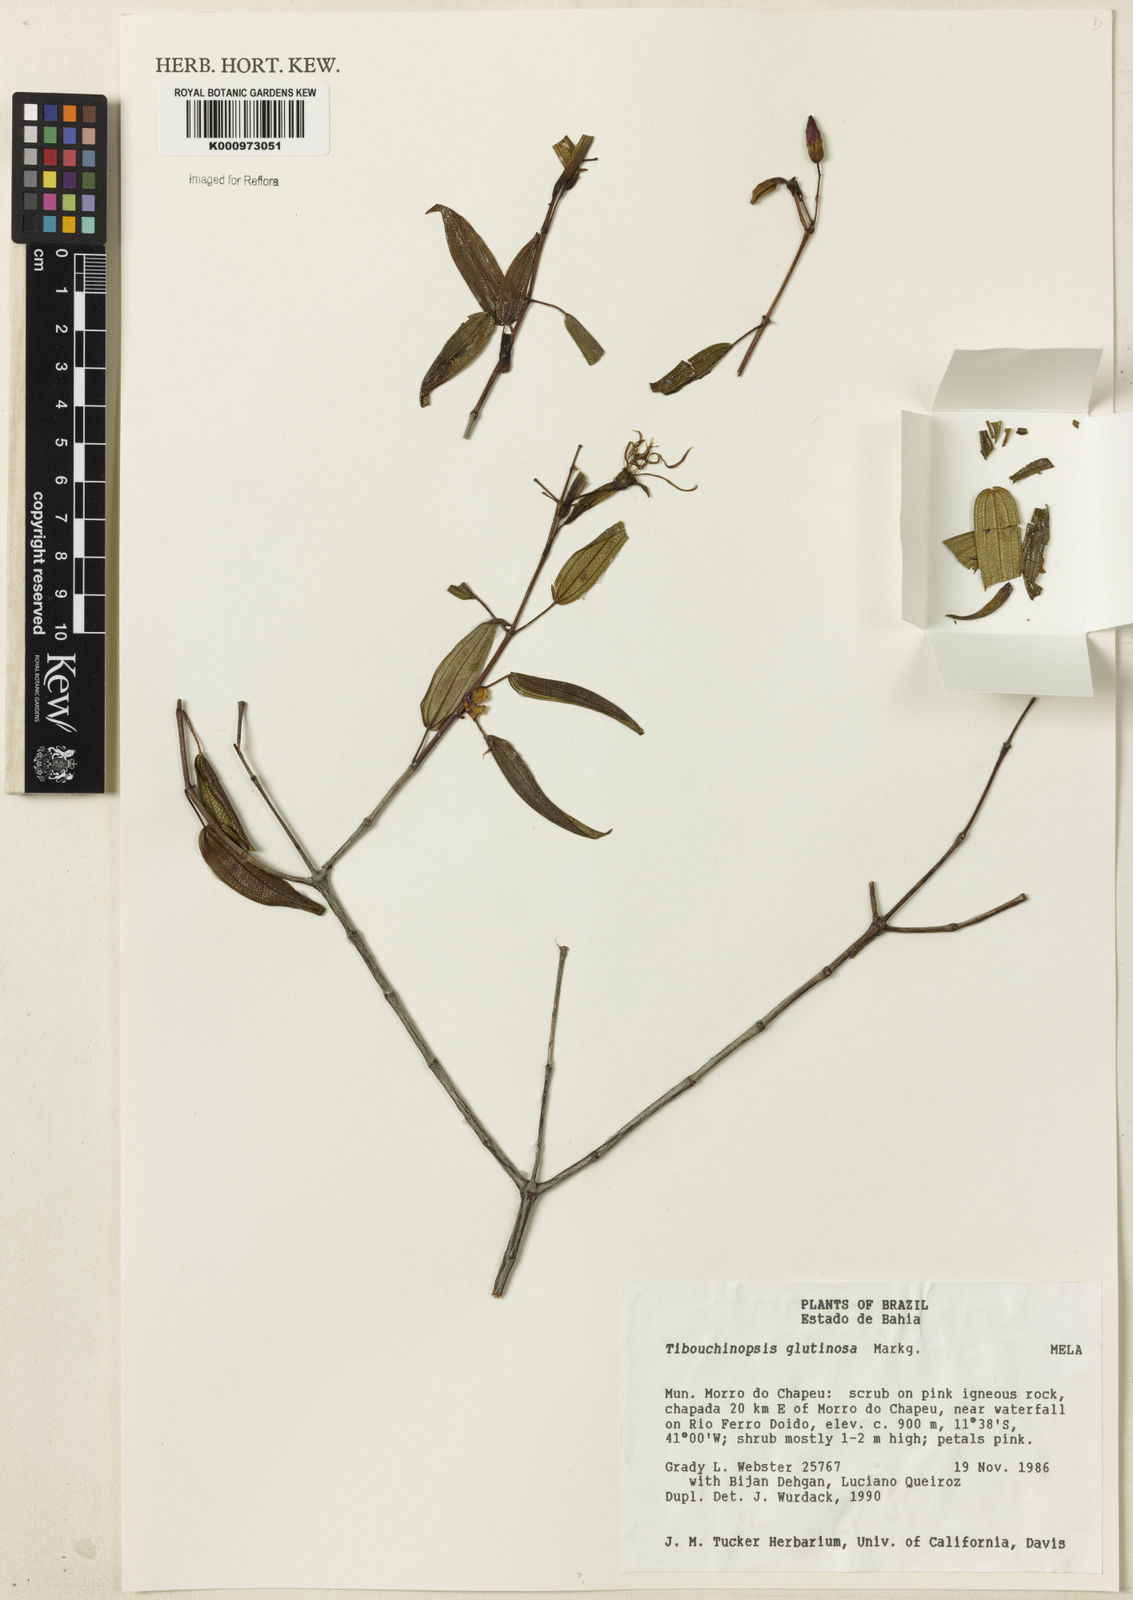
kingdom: Plantae
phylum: Tracheophyta
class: Magnoliopsida
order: Myrtales
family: Melastomataceae
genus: Pleroma
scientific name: Pleroma glutinosum
